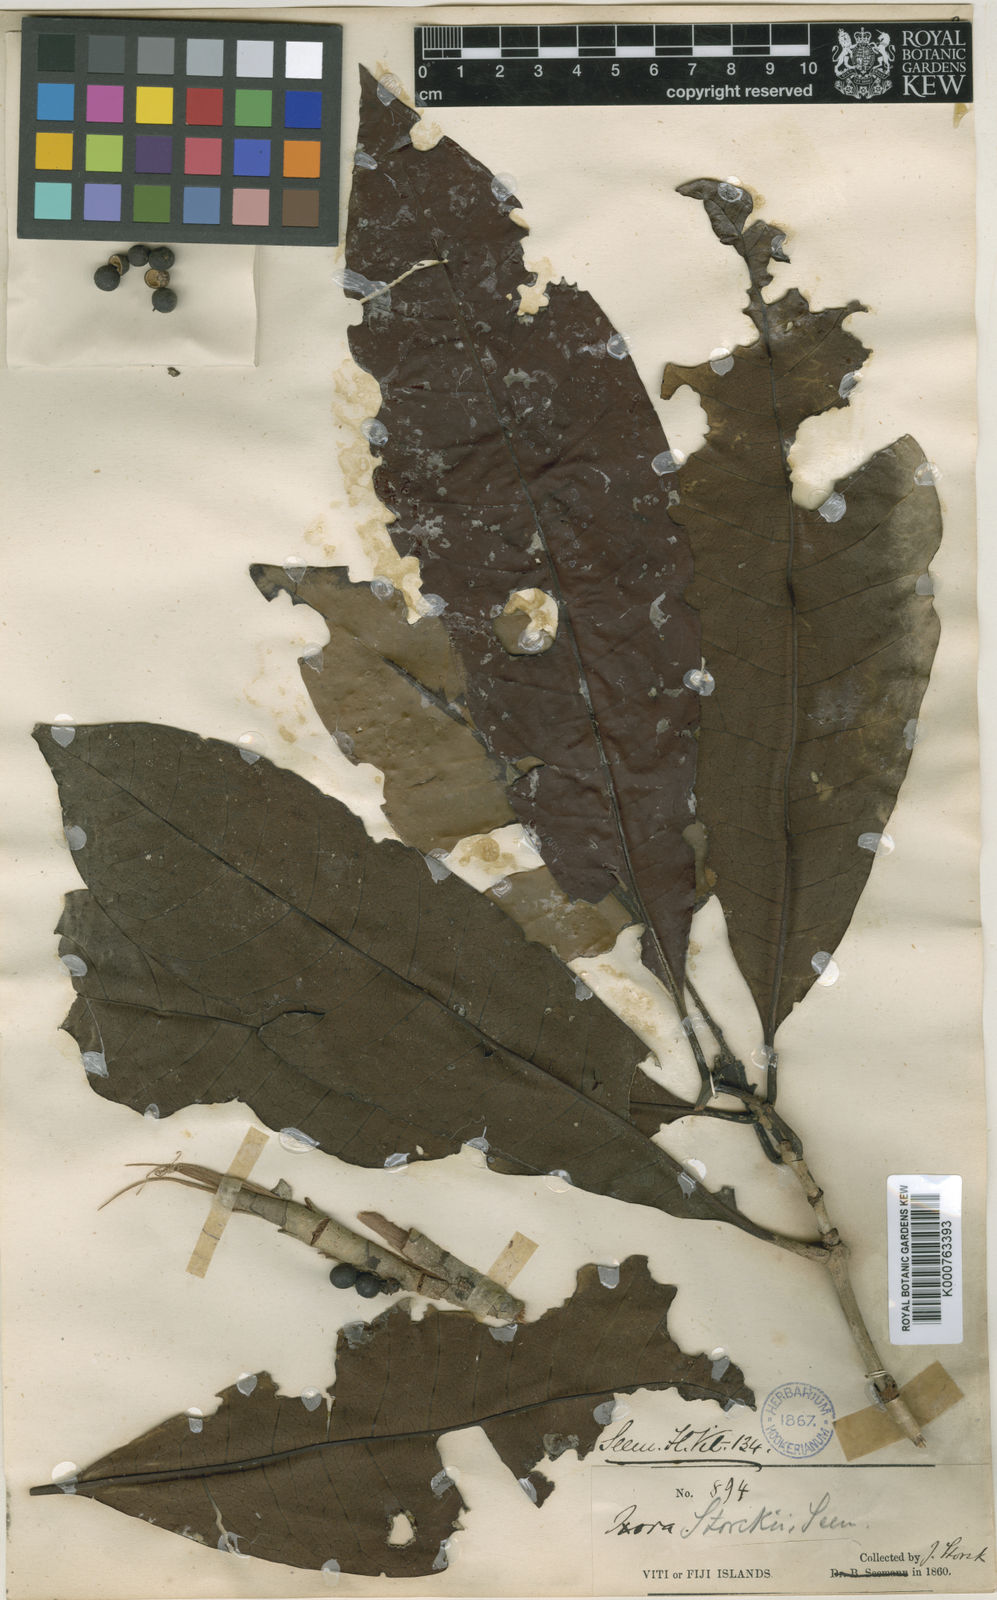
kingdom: Plantae
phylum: Tracheophyta
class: Magnoliopsida
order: Gentianales
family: Rubiaceae
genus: Ixora
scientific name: Ixora storckii
